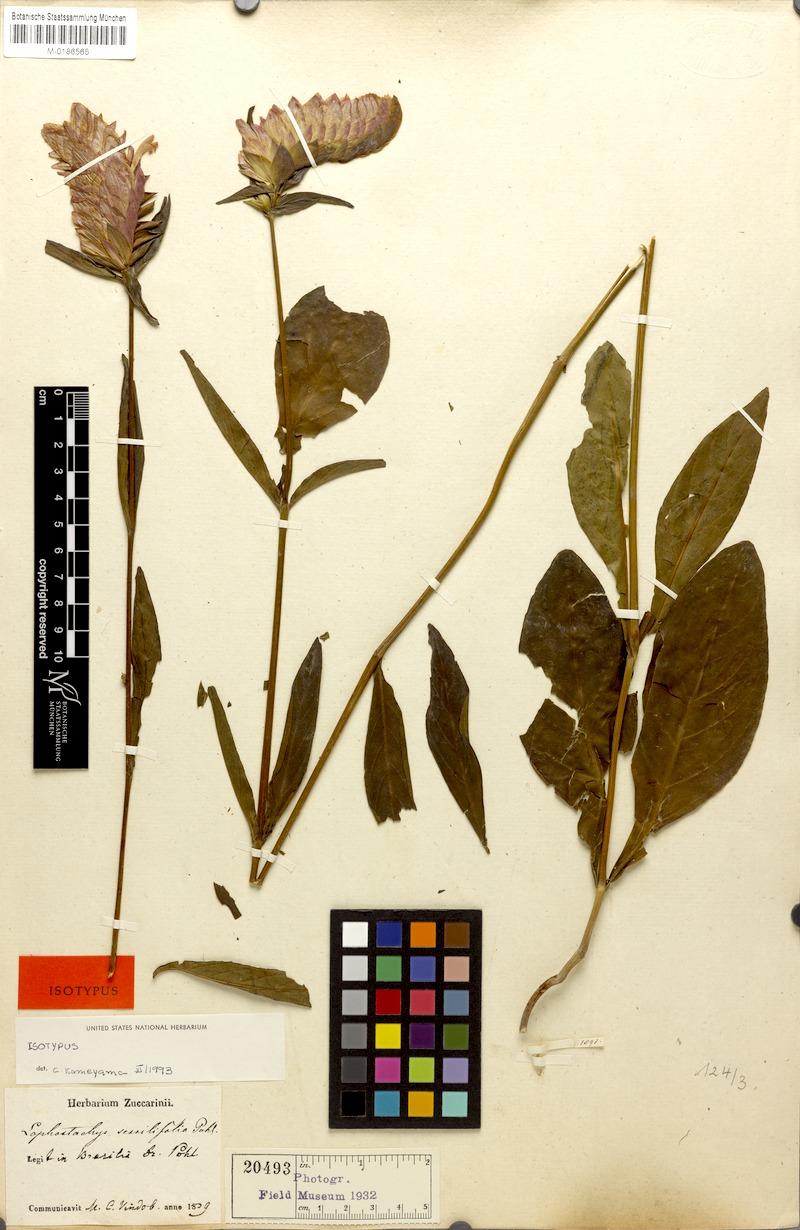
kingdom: Plantae
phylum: Tracheophyta
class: Magnoliopsida
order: Lamiales
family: Acanthaceae
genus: Lepidagathis
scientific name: Lepidagathis sessilifolia
